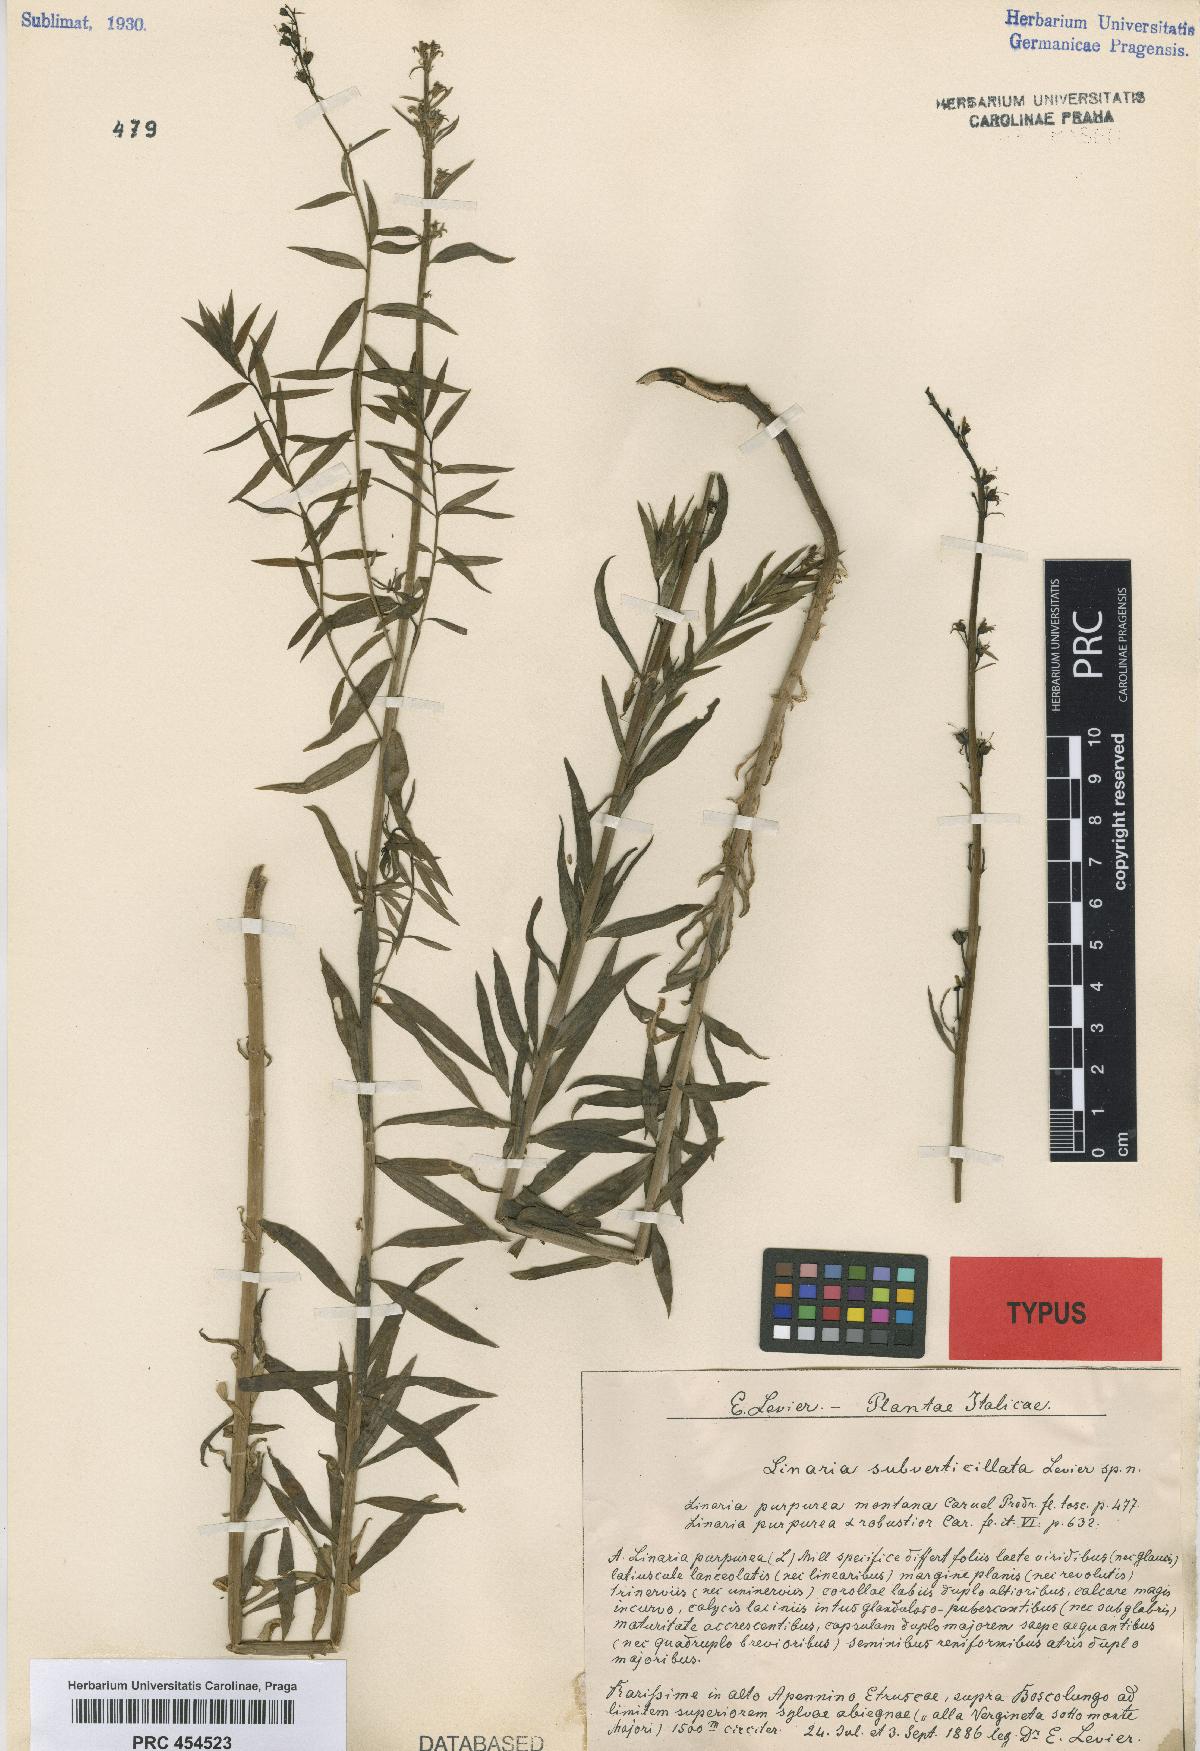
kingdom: Plantae
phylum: Tracheophyta
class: Magnoliopsida
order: Lamiales
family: Scrophulariaceae
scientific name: Scrophulariaceae
